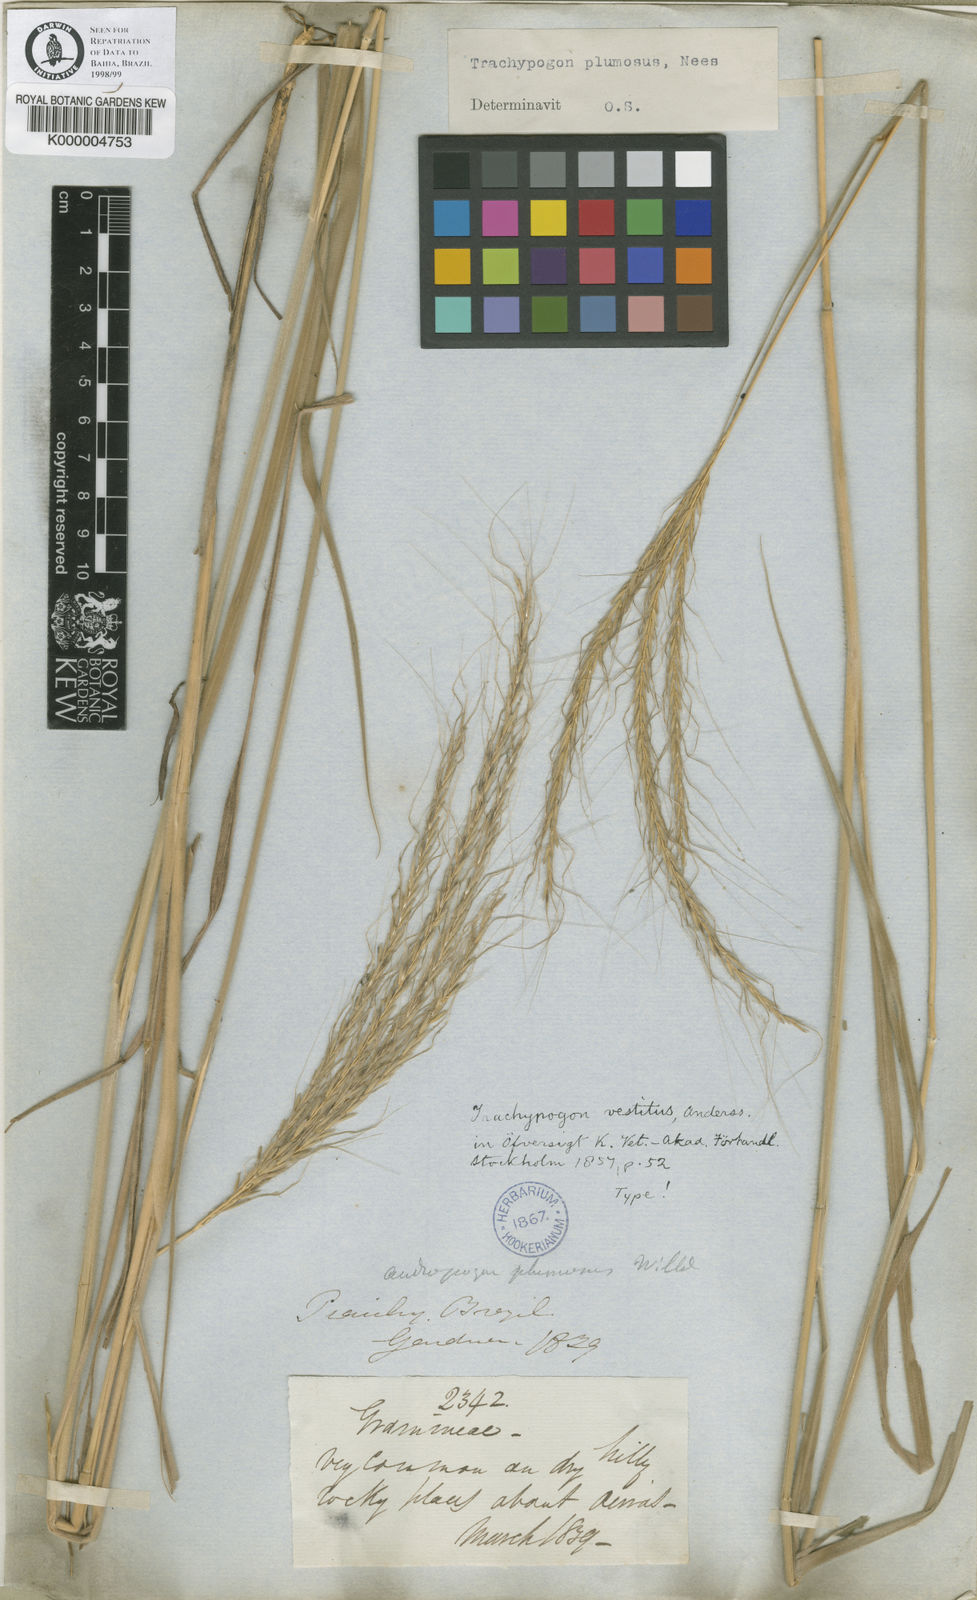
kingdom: Plantae
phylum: Tracheophyta
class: Liliopsida
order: Poales
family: Poaceae
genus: Trachypogon
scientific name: Trachypogon spicatus
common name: Crinkle-awn
